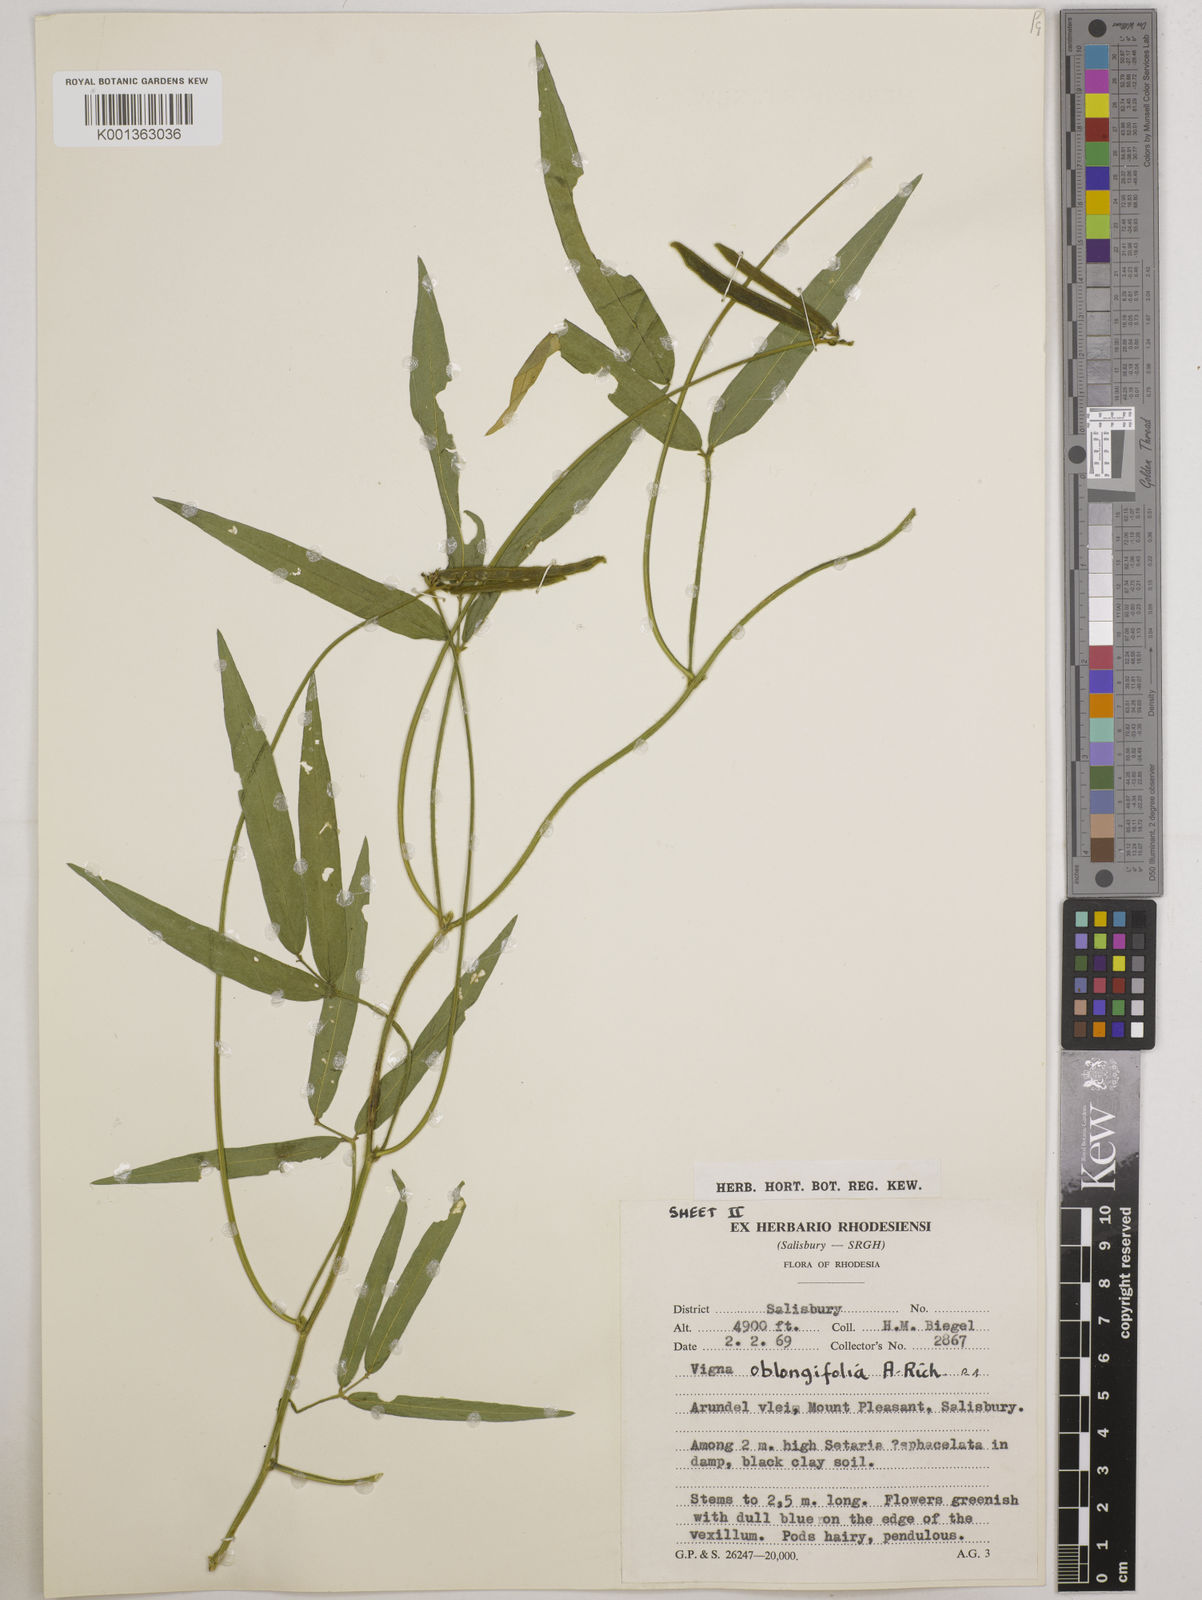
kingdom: Plantae
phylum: Tracheophyta
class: Magnoliopsida
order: Fabales
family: Fabaceae
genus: Vigna
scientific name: Vigna oblongifolia
